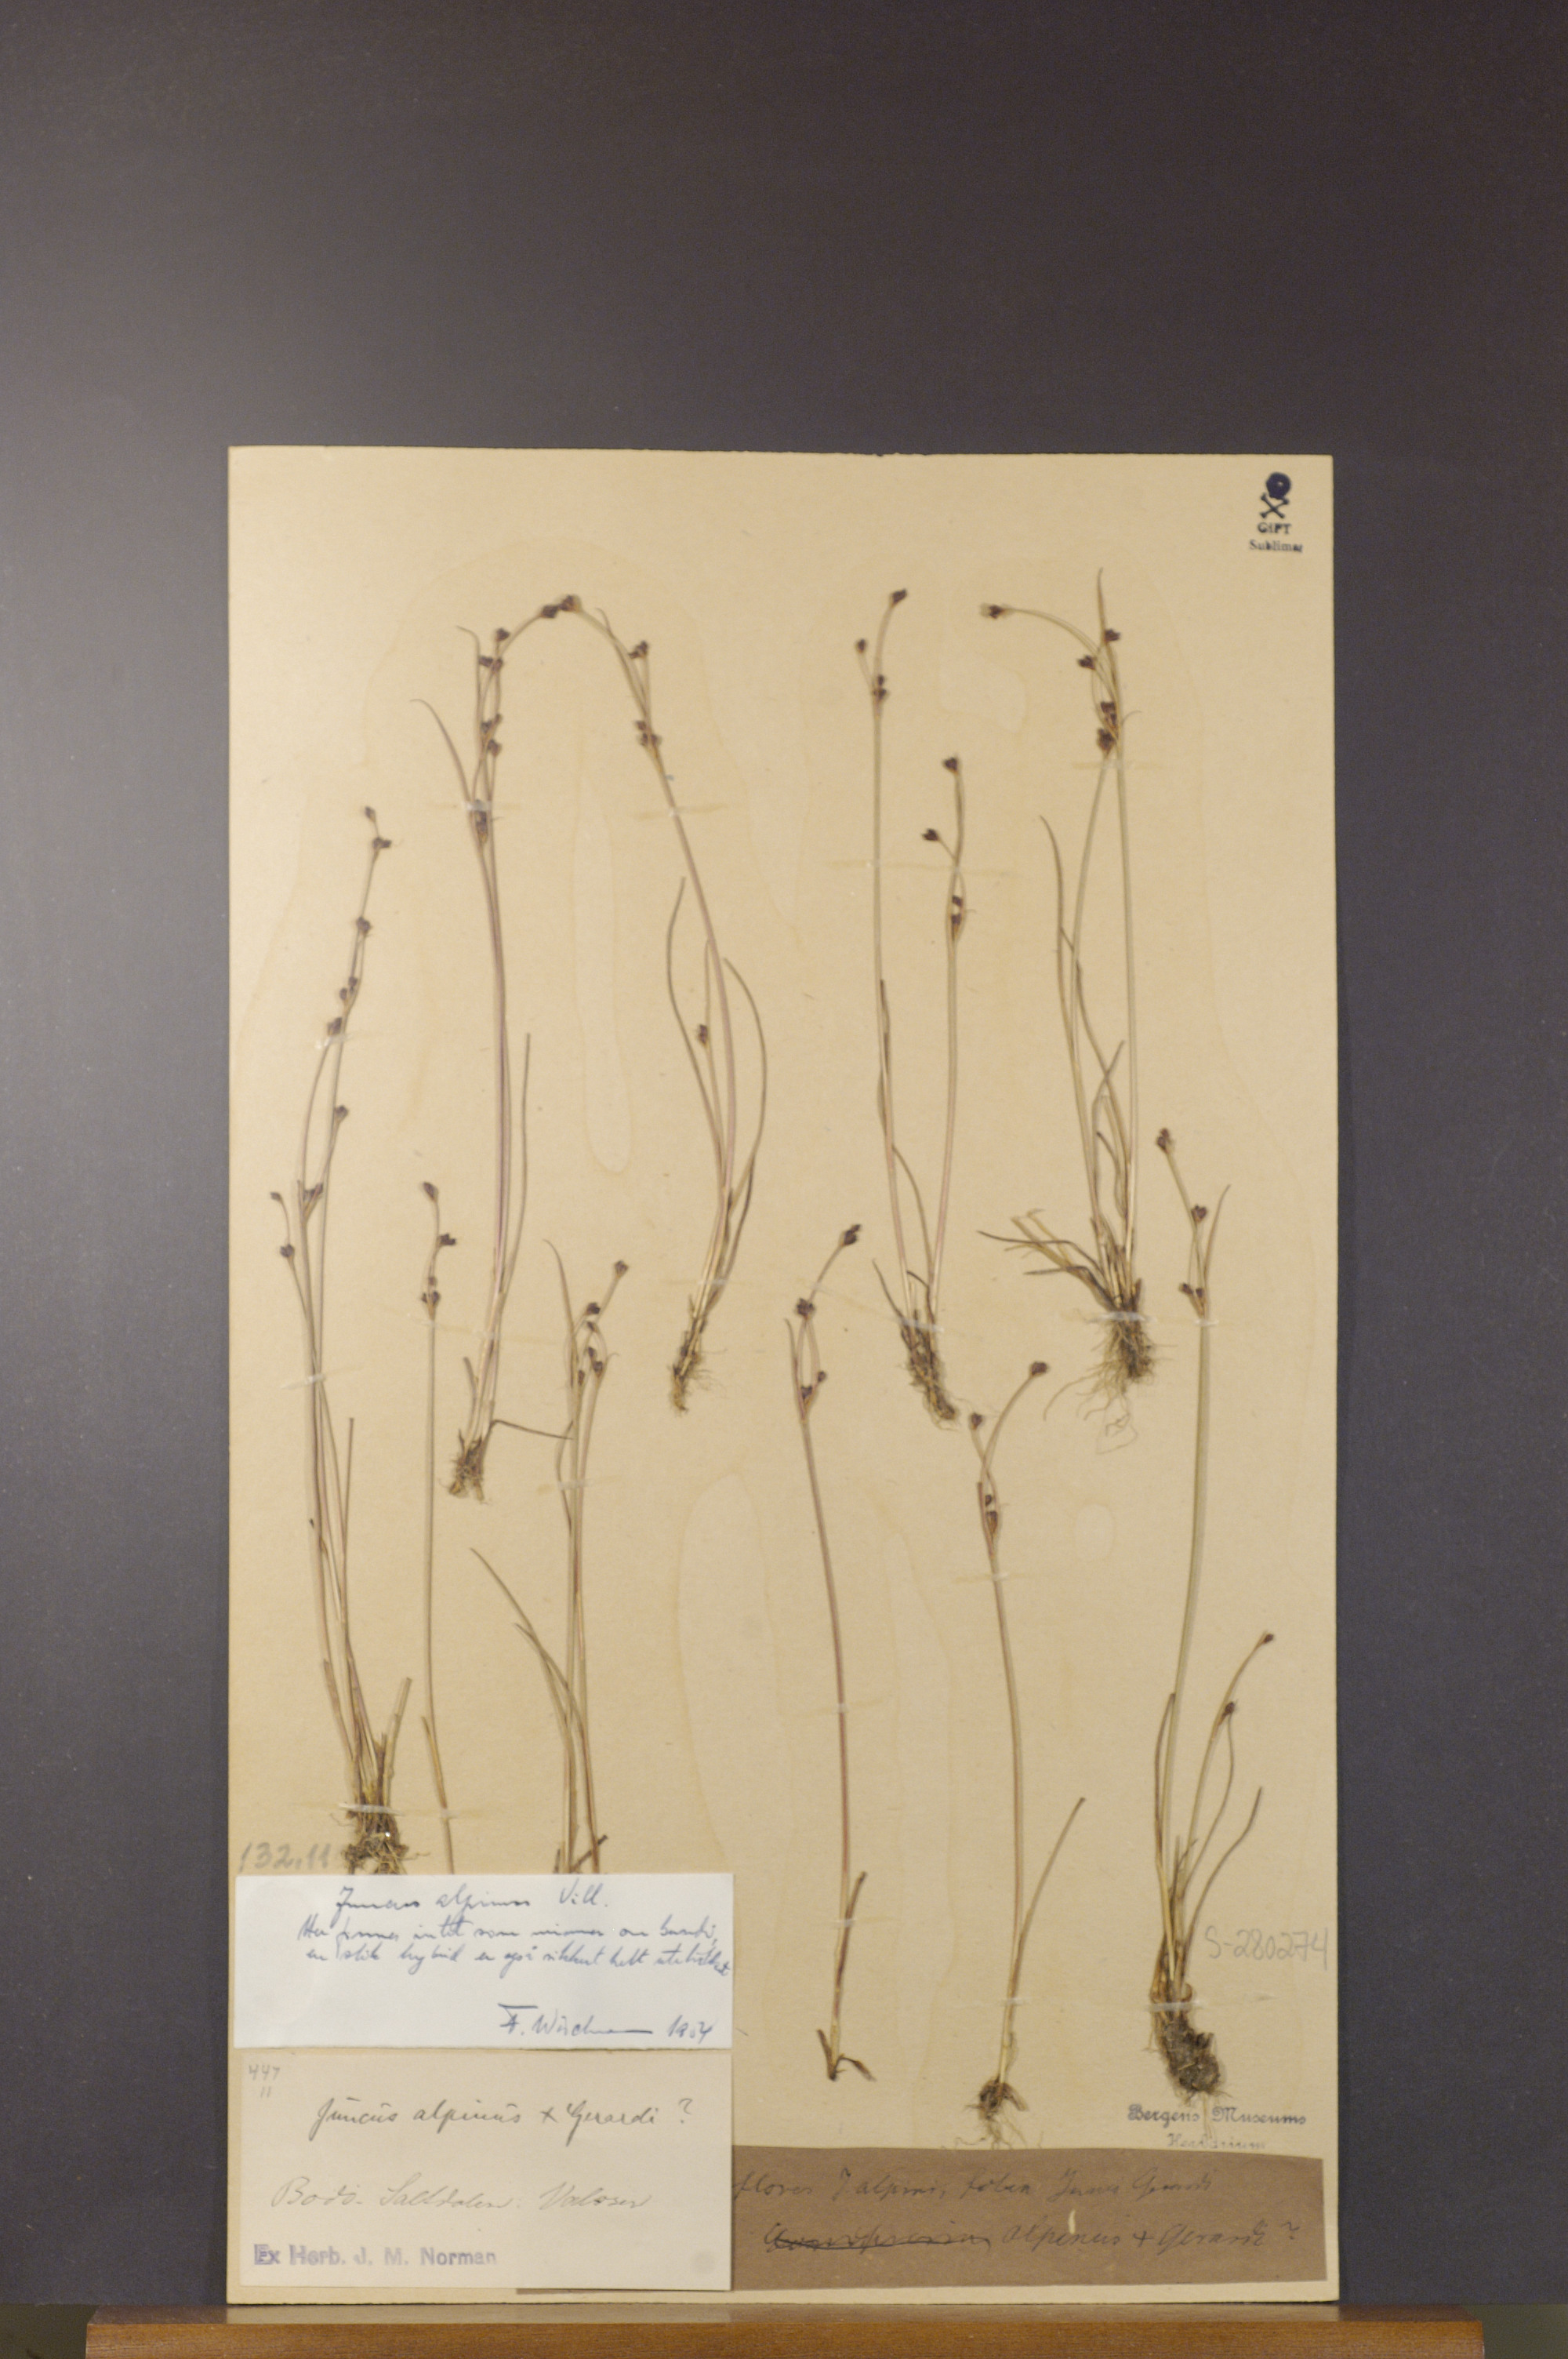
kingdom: Plantae
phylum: Tracheophyta
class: Liliopsida
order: Poales
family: Juncaceae
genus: Juncus
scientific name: Juncus alpinoarticulatus
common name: Alpine rush
